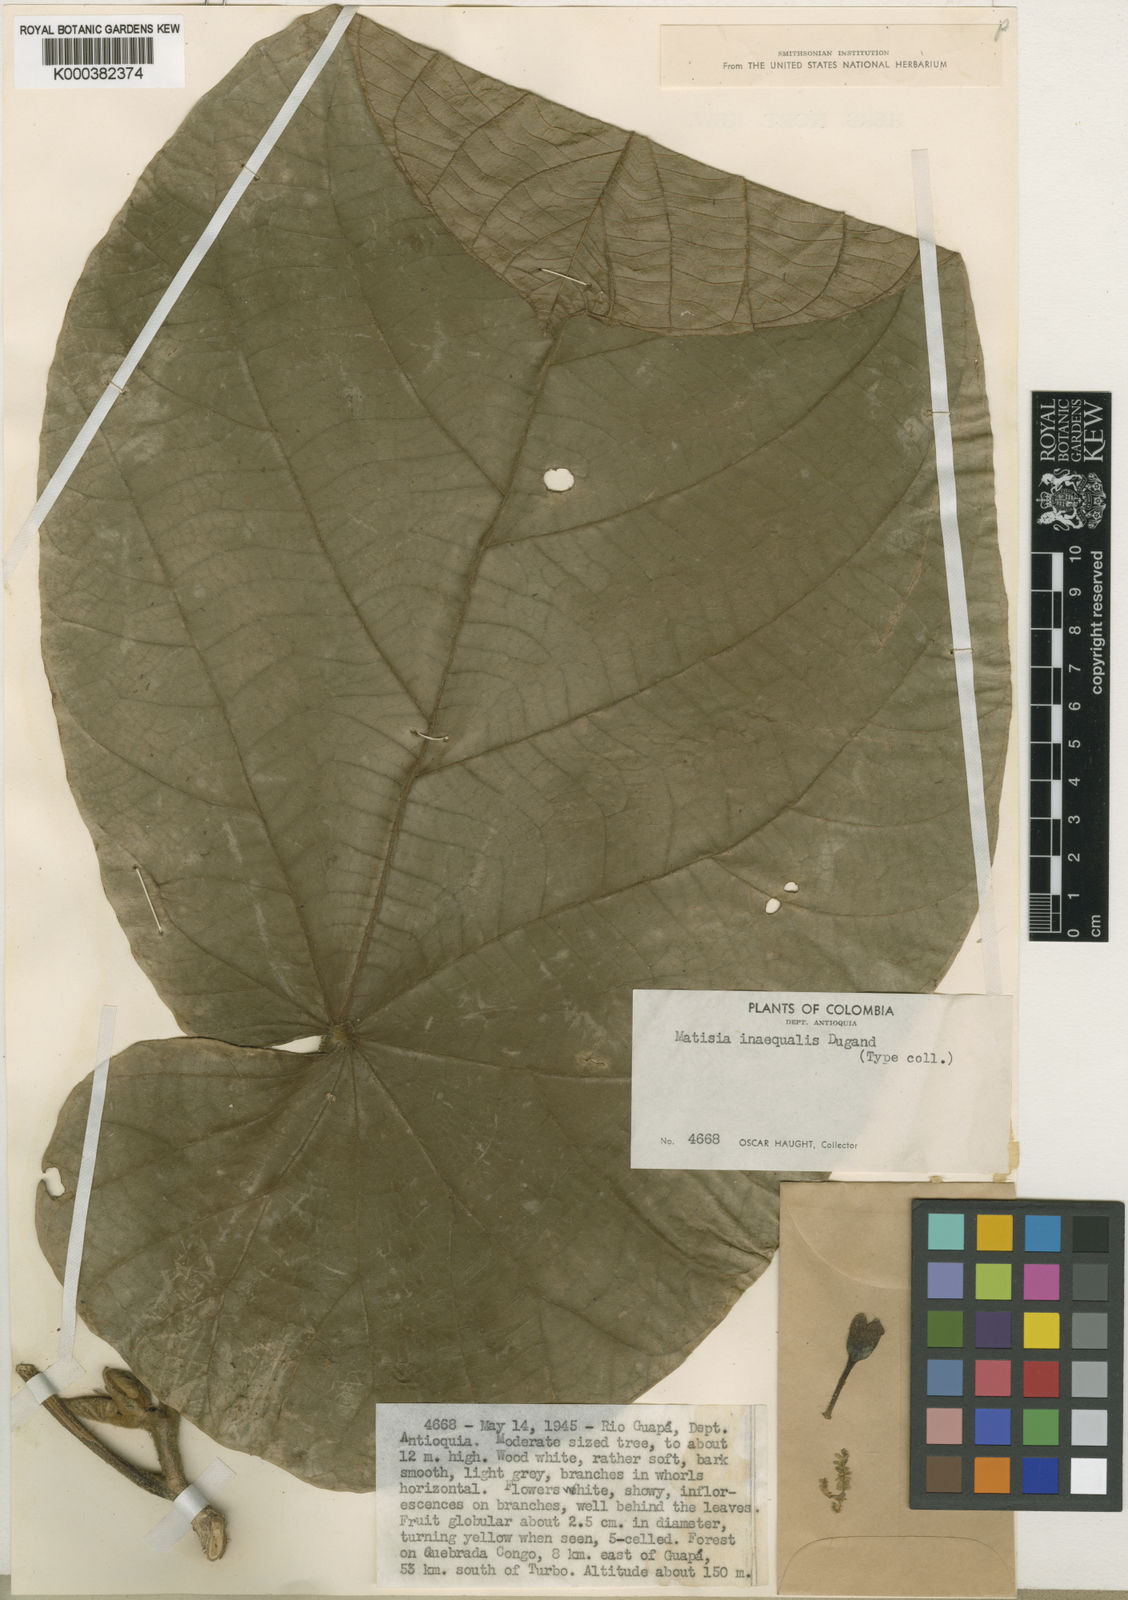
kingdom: Plantae
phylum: Tracheophyta
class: Magnoliopsida
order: Malvales
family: Malvaceae
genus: Matisia
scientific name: Matisia obliquifolia
